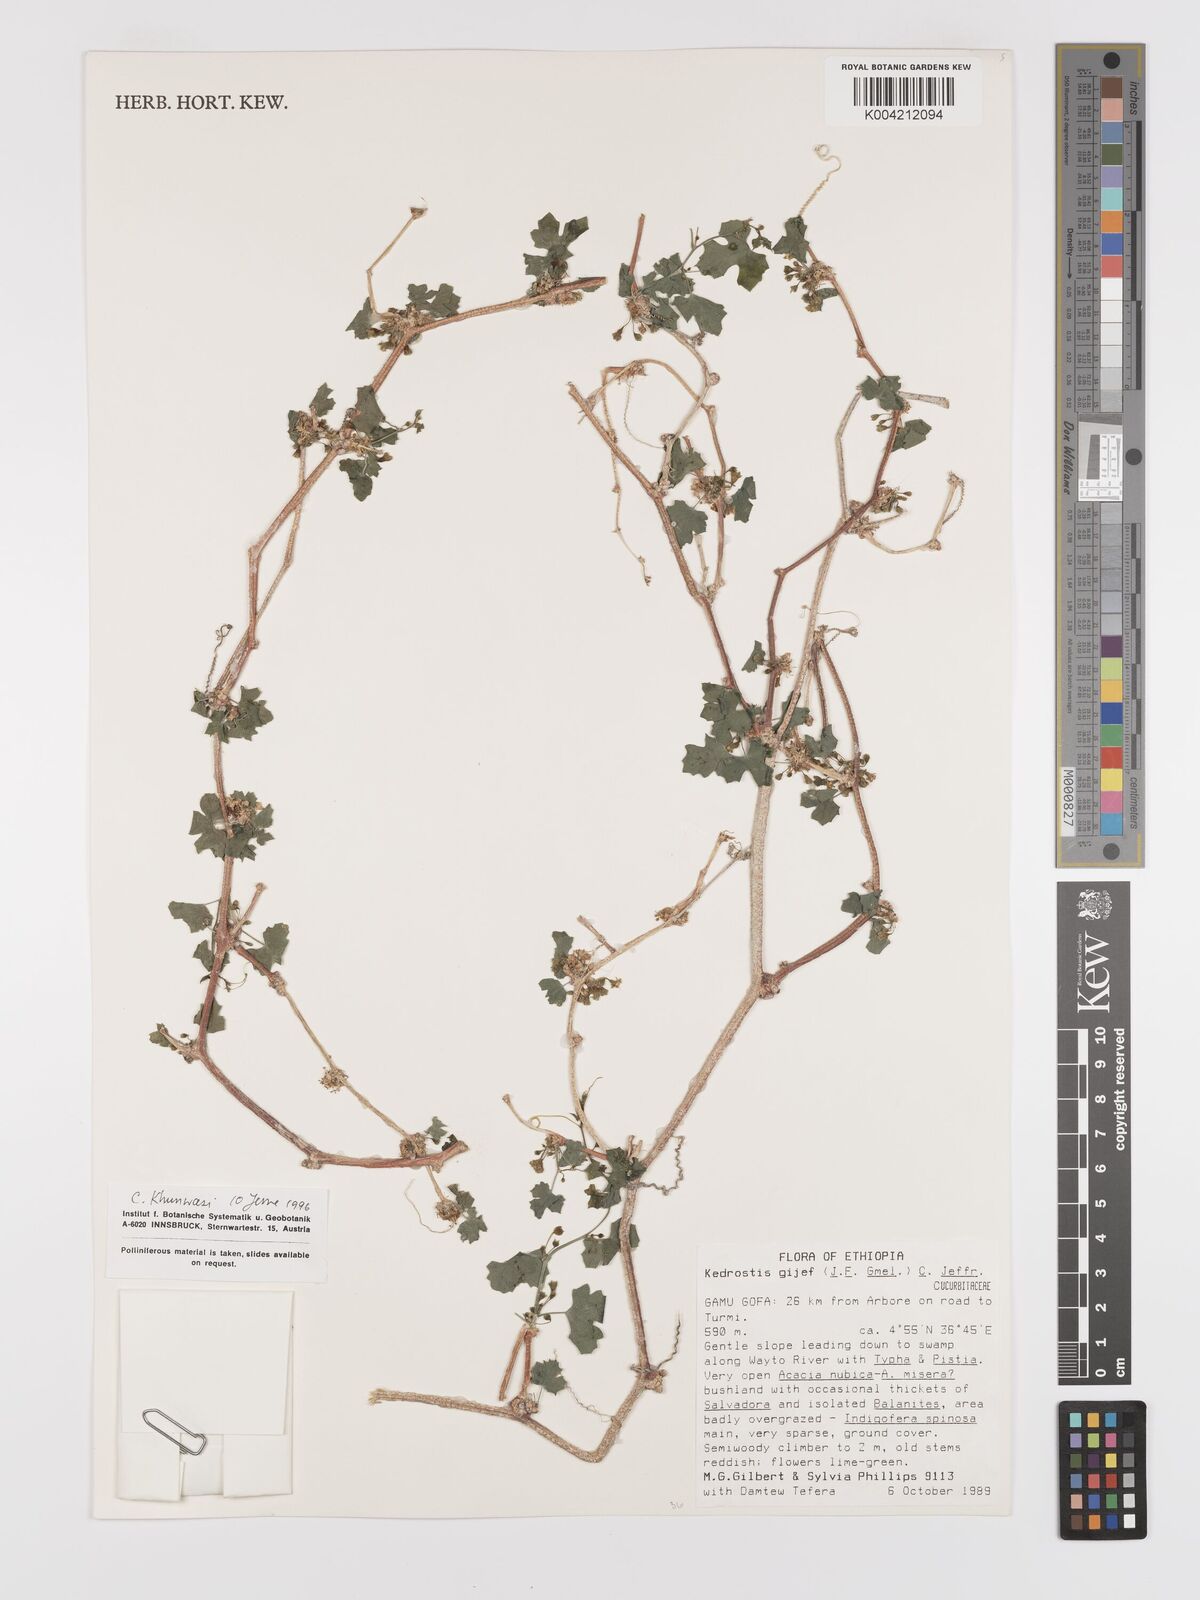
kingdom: Plantae
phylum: Tracheophyta
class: Magnoliopsida
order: Cucurbitales
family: Cucurbitaceae
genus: Kedrostis
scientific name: Kedrostis gijef
